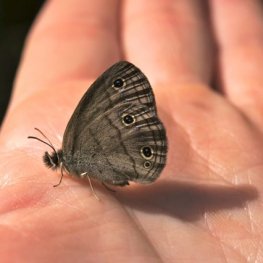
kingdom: Animalia
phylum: Arthropoda
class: Insecta
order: Lepidoptera
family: Nymphalidae
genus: Euptychia
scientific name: Euptychia cymela
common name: Little Wood Satyr
